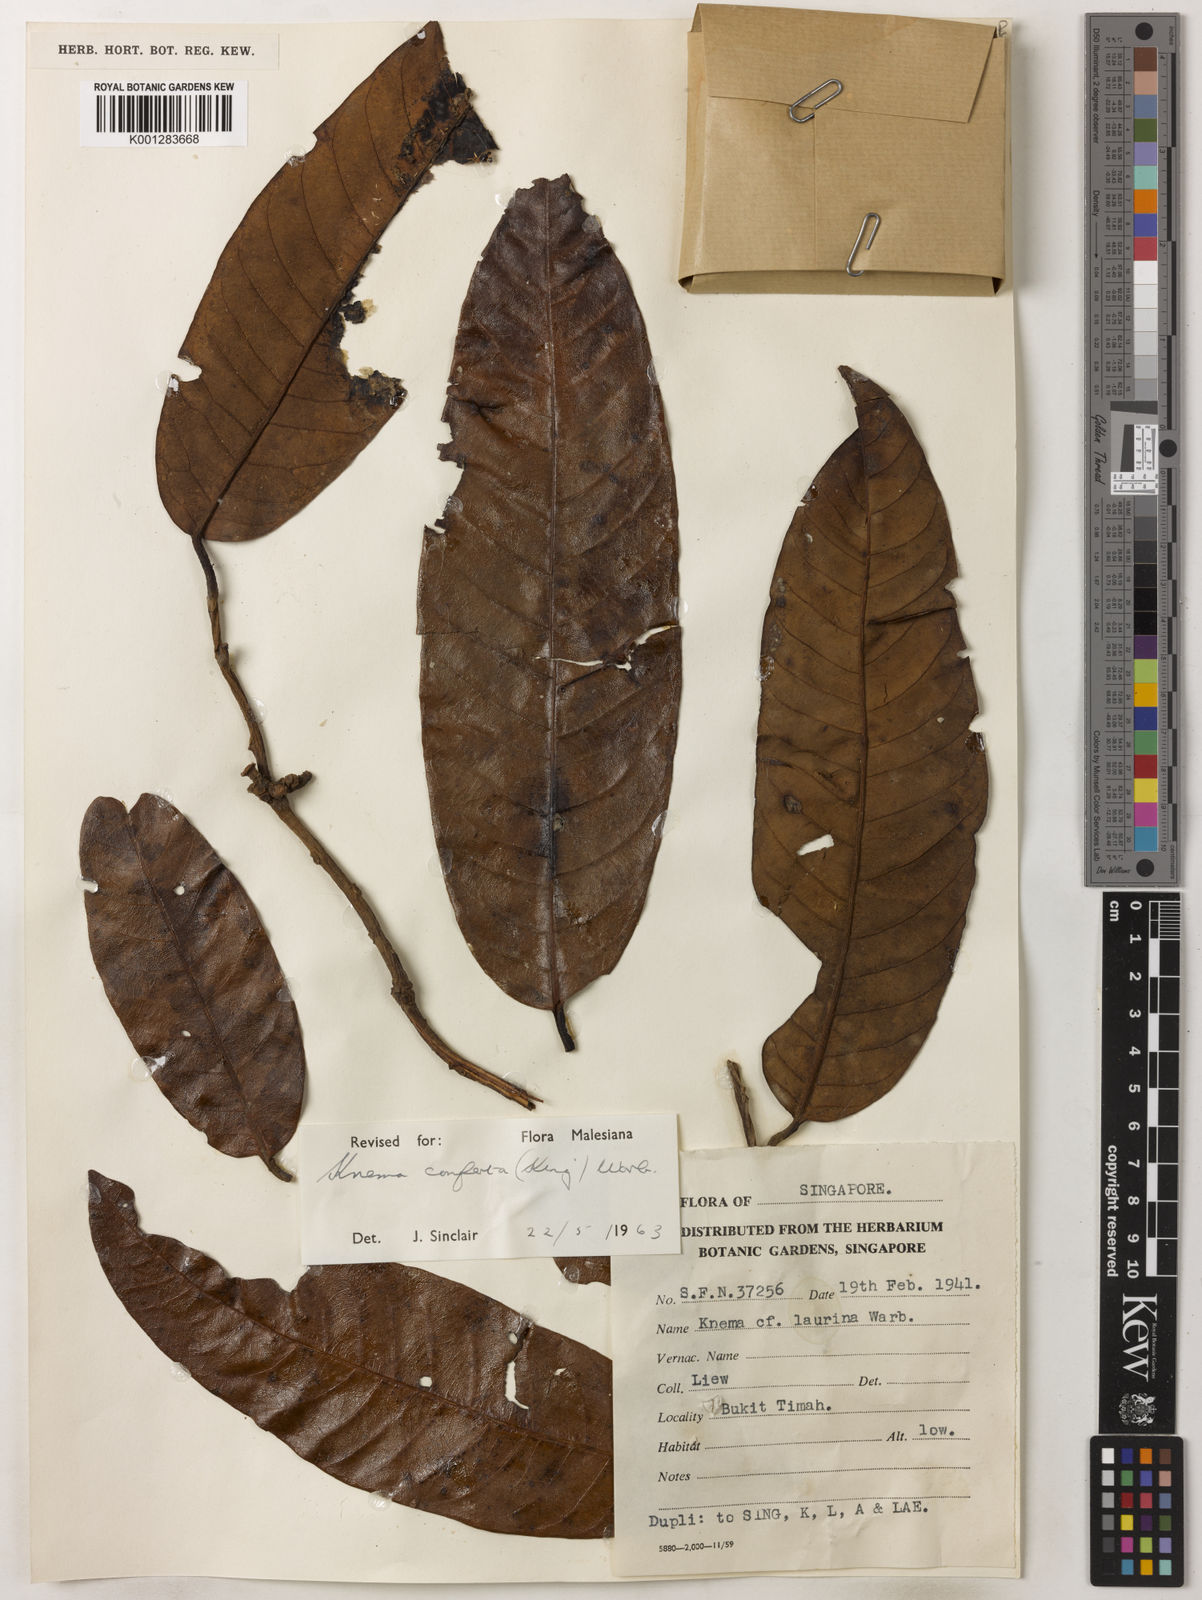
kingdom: Plantae
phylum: Tracheophyta
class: Magnoliopsida
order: Magnoliales
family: Myristicaceae
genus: Knema
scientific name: Knema conferta
